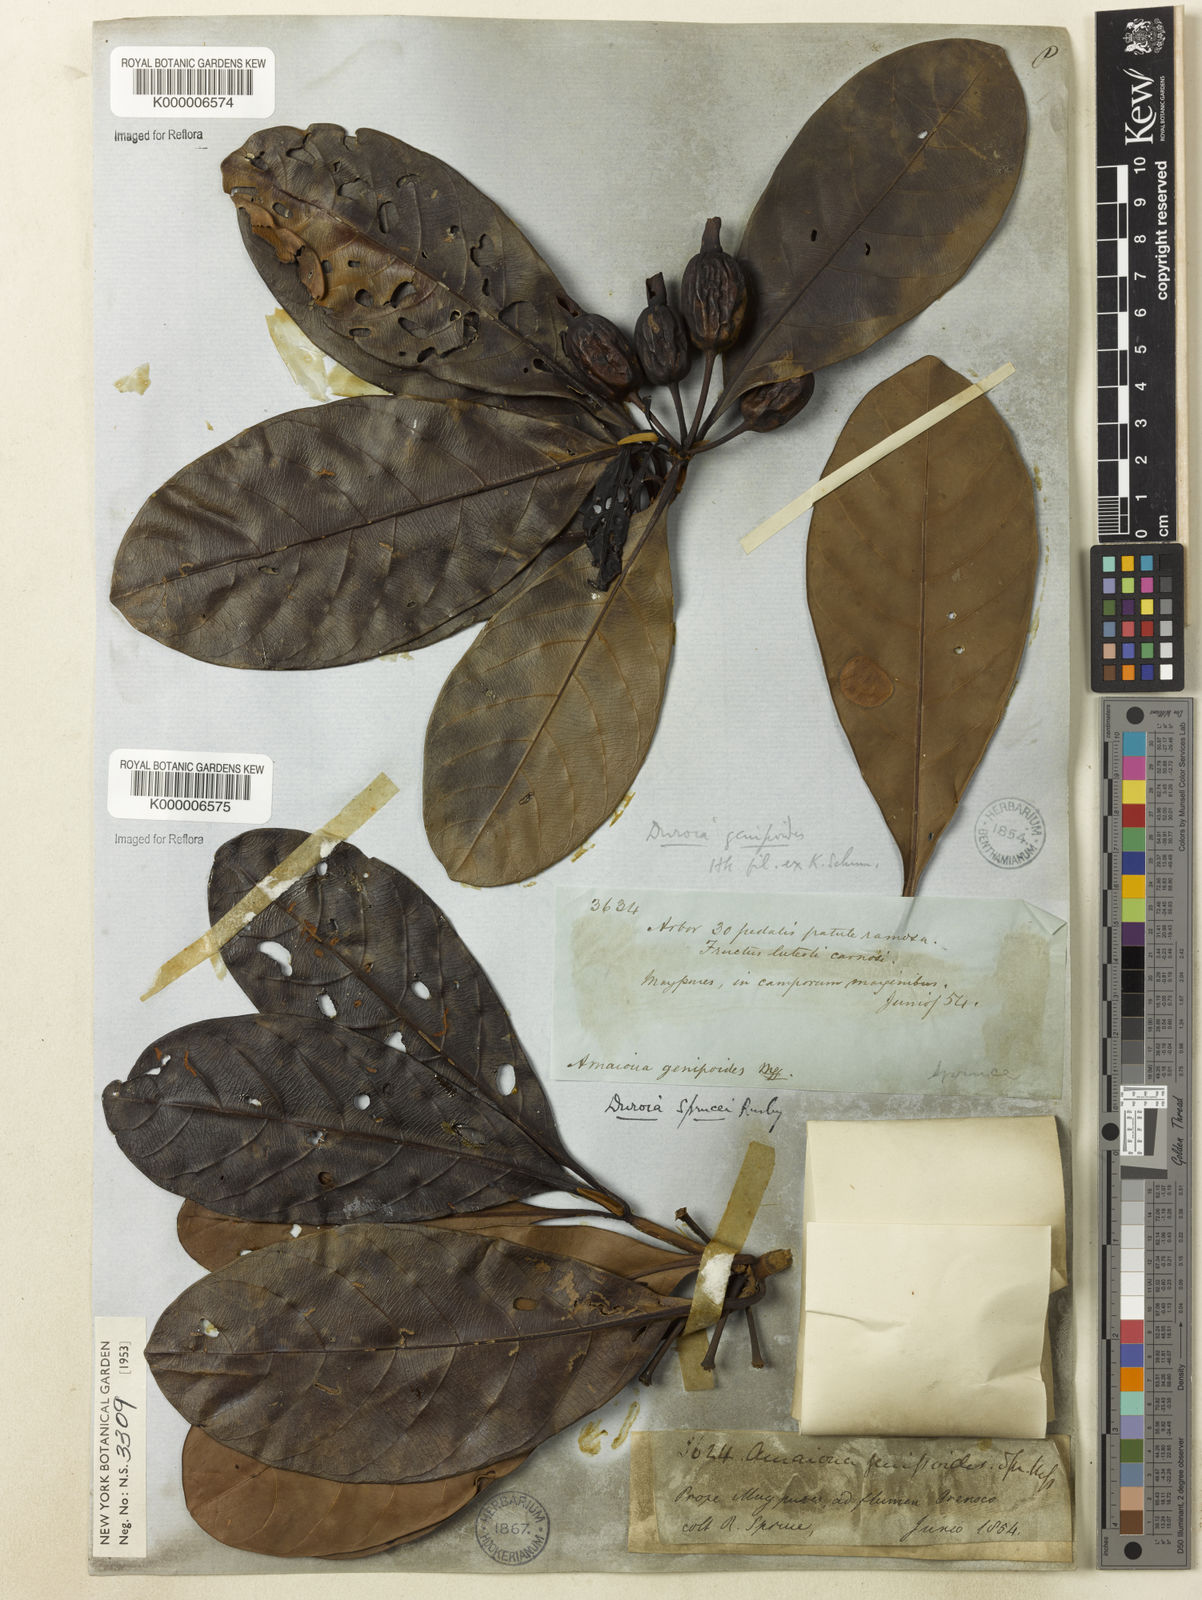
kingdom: Plantae
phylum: Tracheophyta
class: Magnoliopsida
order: Gentianales
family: Rubiaceae
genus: Duroia
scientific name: Duroia genipoides
